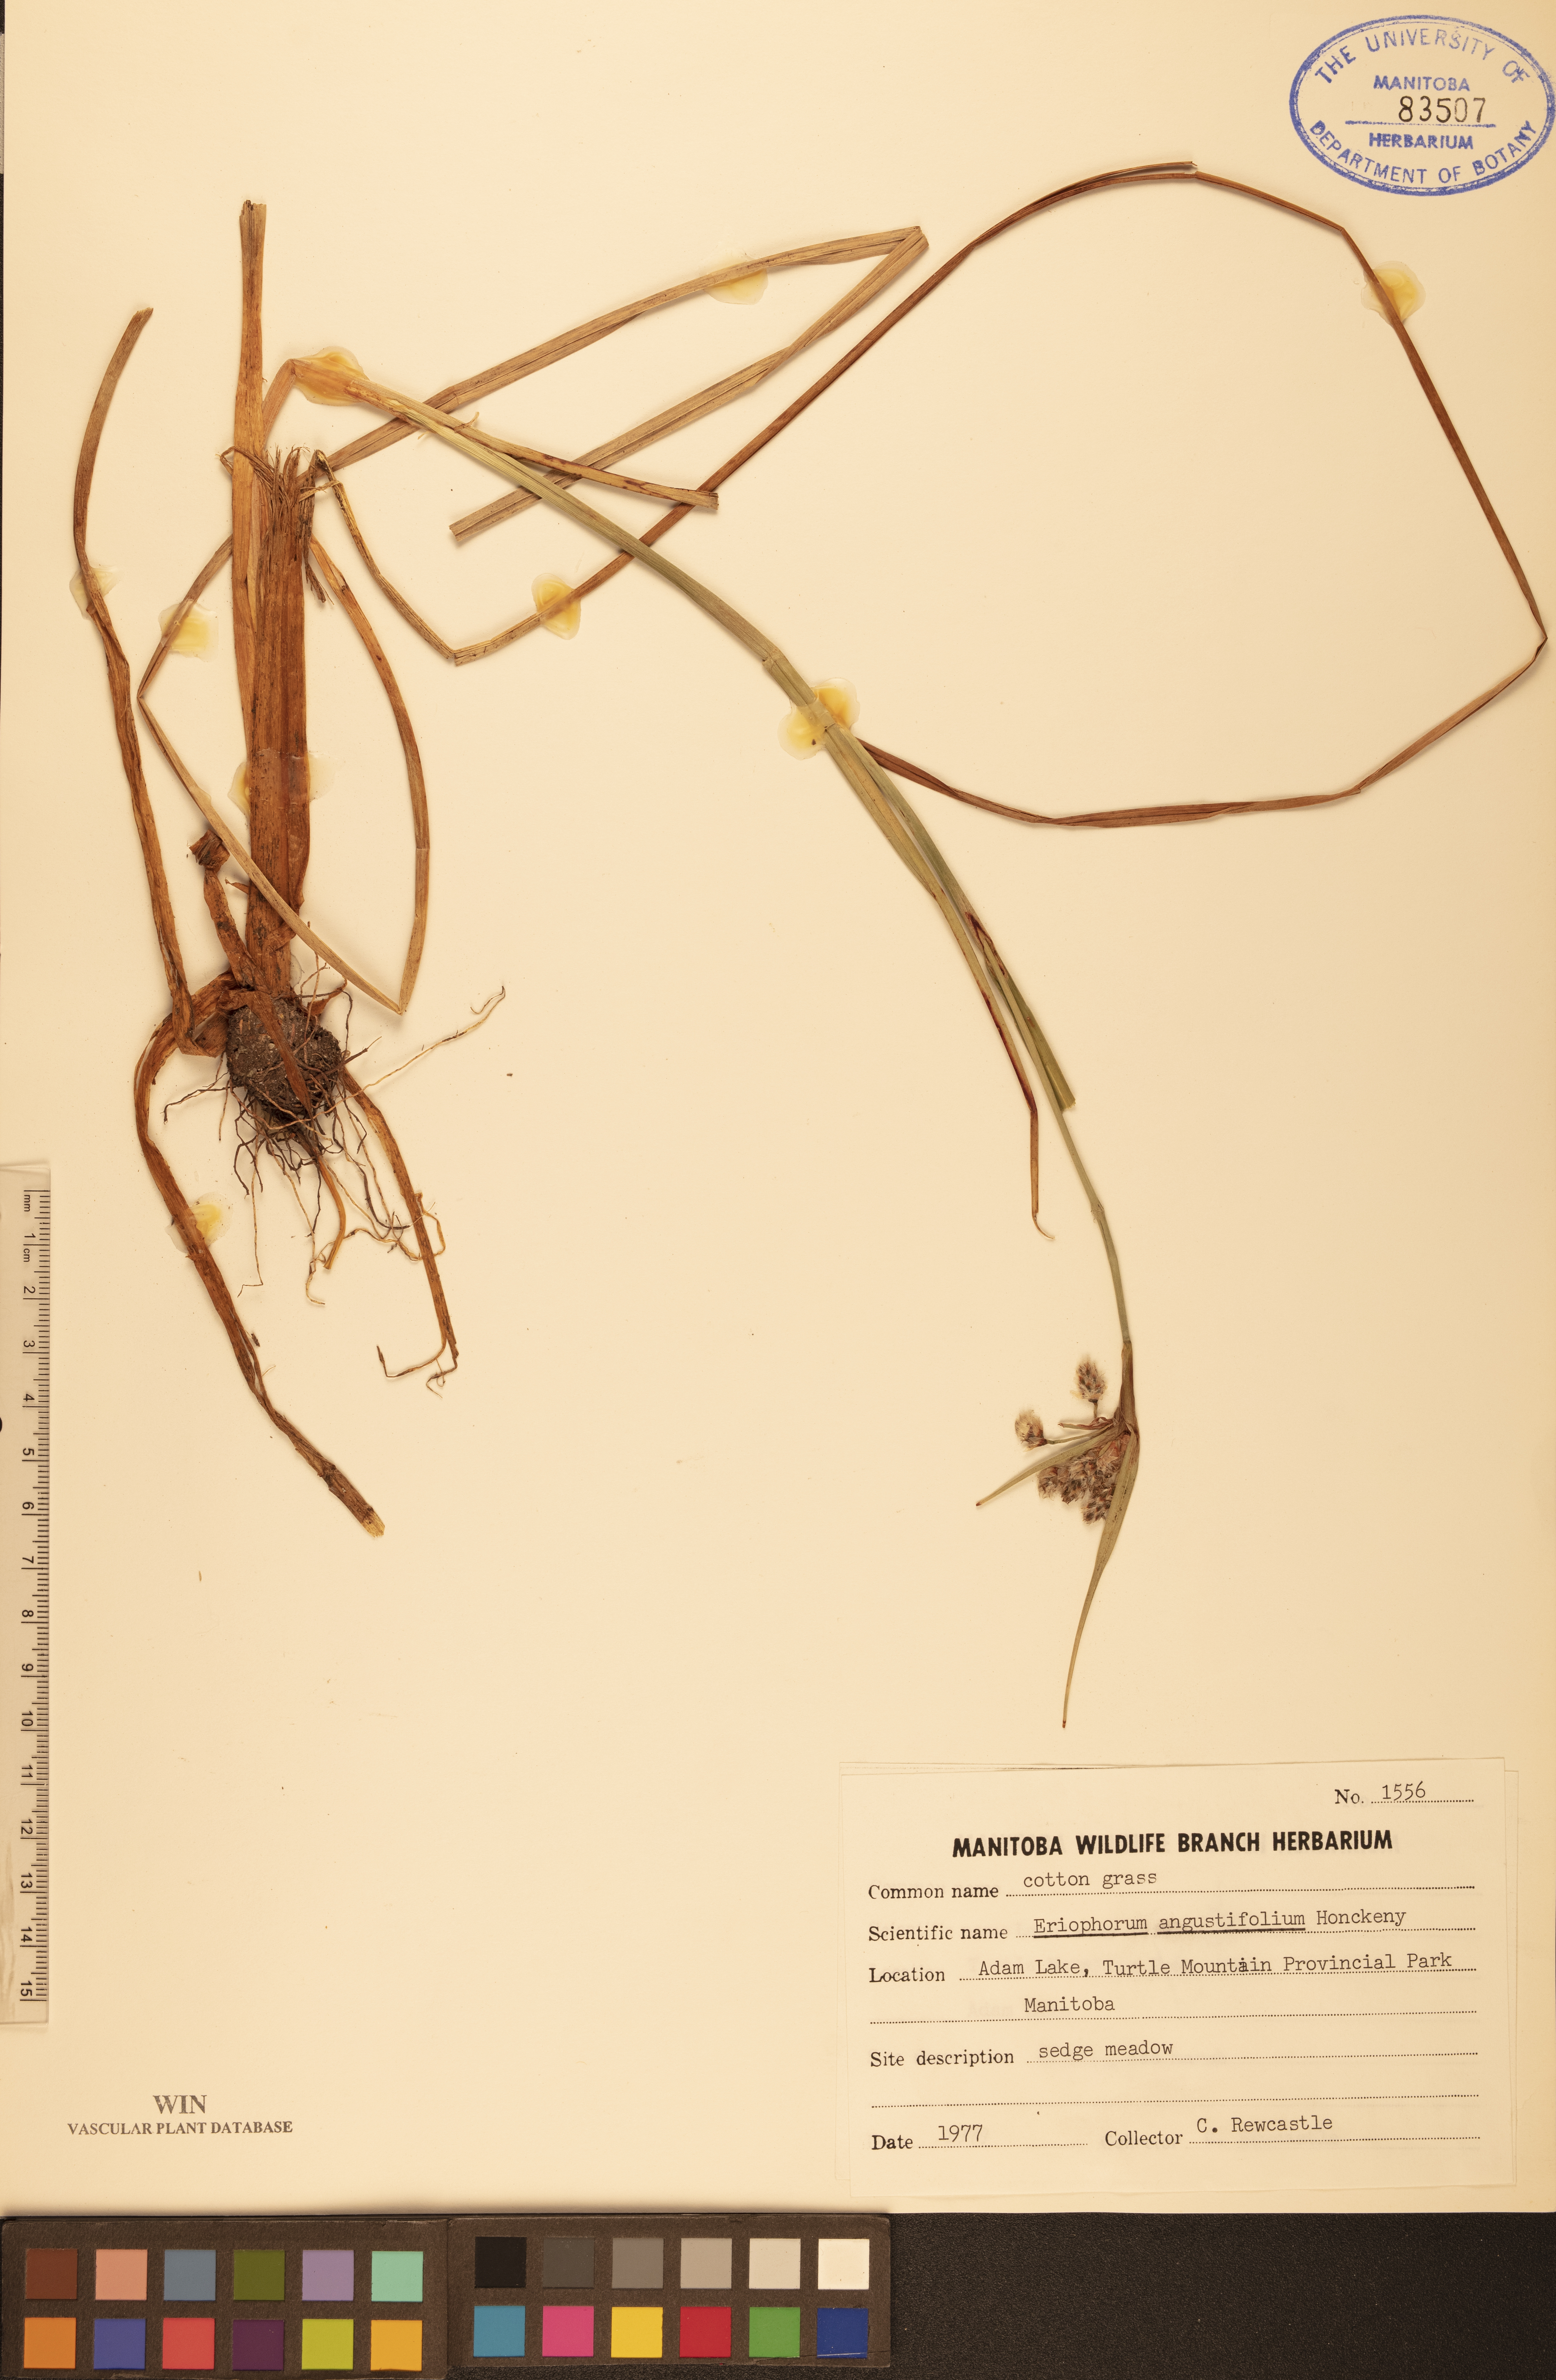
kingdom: Plantae
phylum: Tracheophyta
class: Liliopsida
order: Poales
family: Cyperaceae
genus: Eriophorum
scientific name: Eriophorum angustifolium
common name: Common cottongrass
